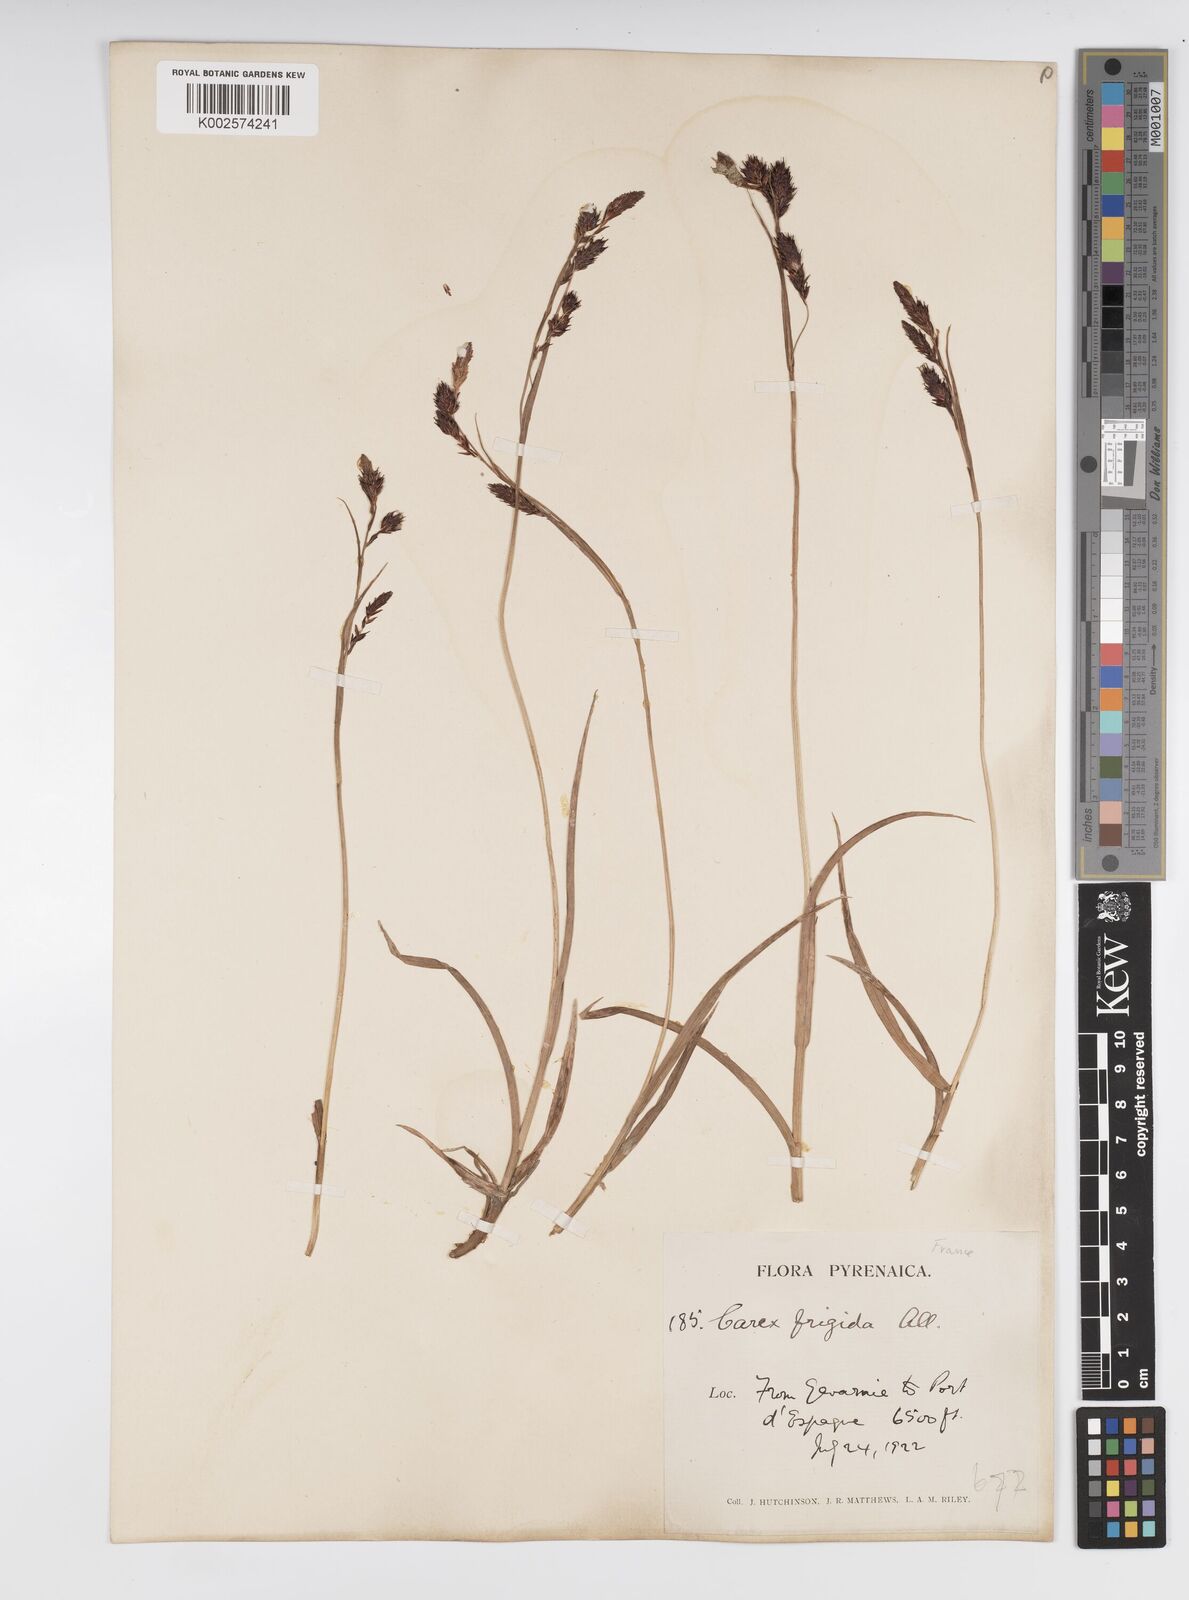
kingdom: Plantae
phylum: Tracheophyta
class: Liliopsida
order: Poales
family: Cyperaceae
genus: Carex
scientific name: Carex frigida
